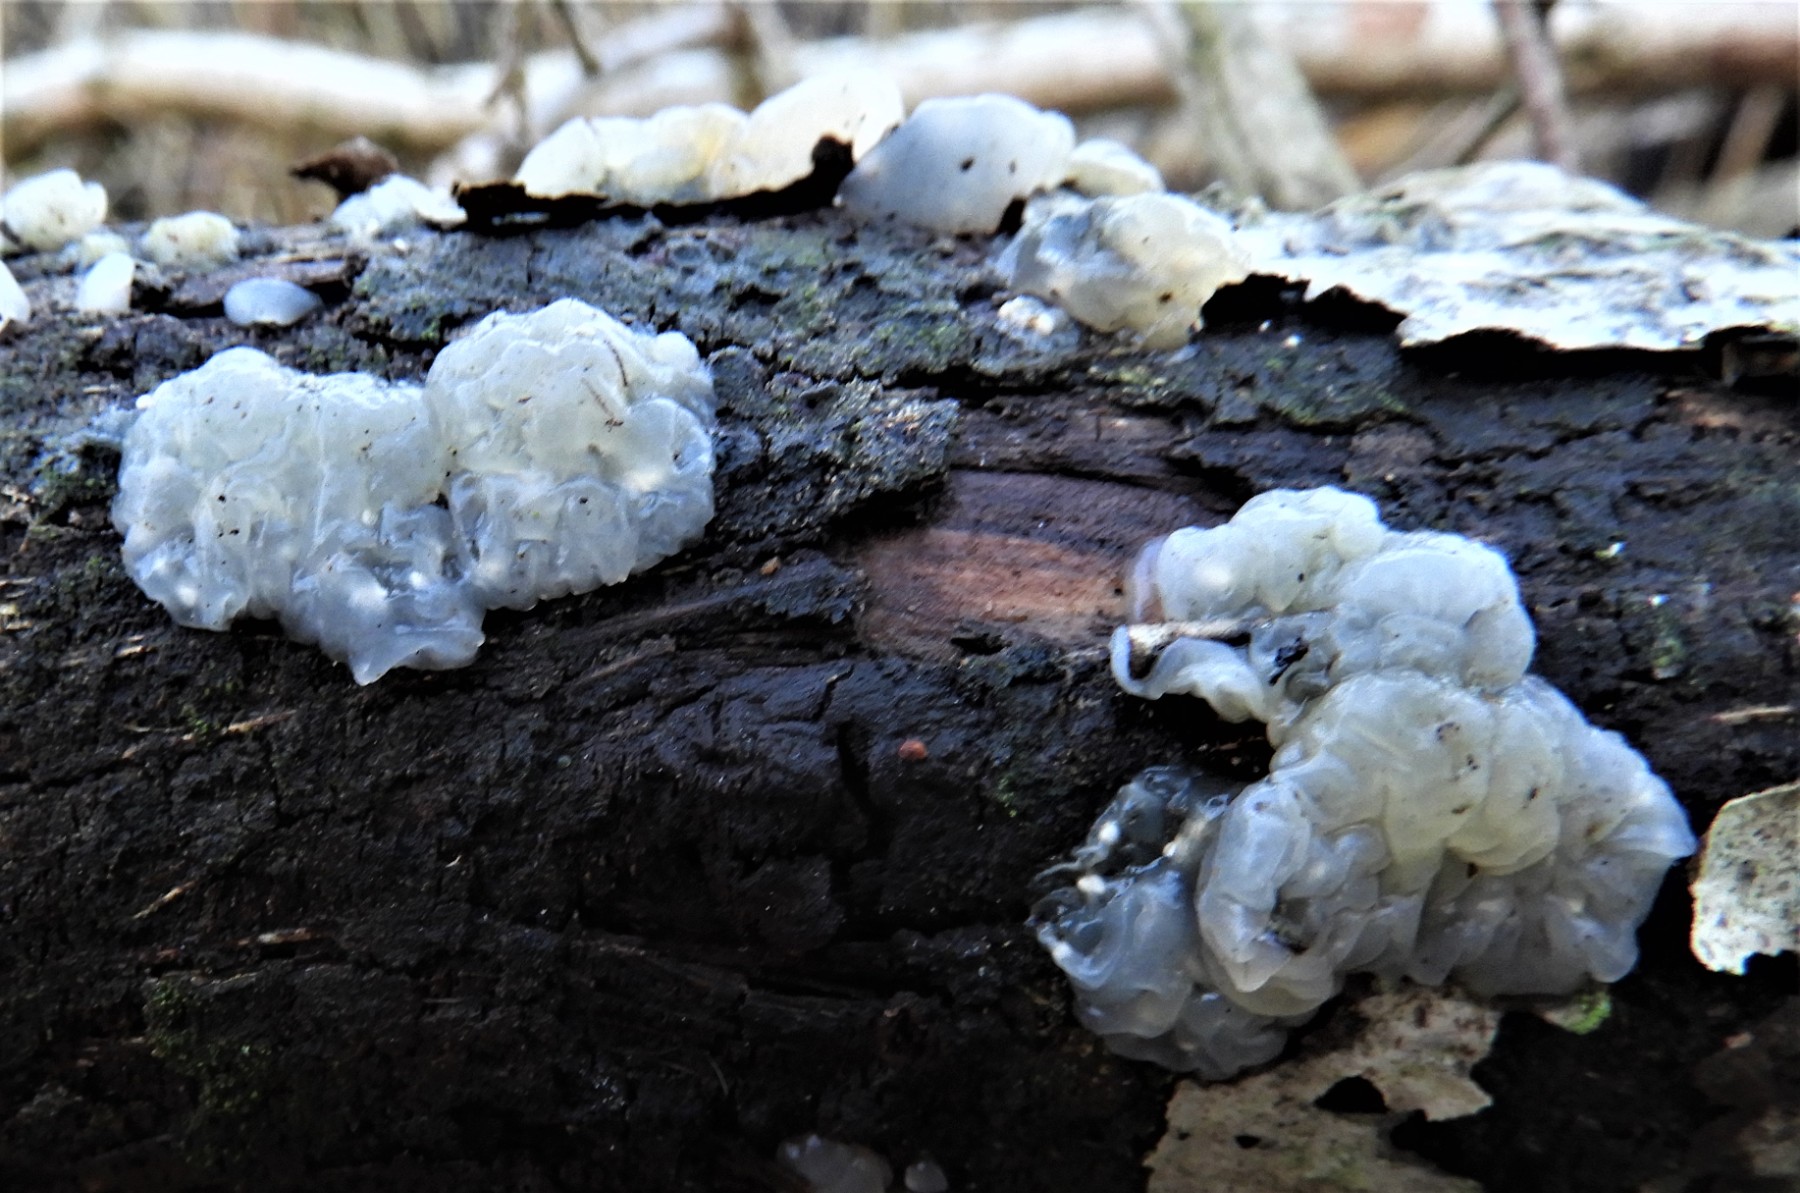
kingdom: Fungi
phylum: Basidiomycota
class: Agaricomycetes
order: Auriculariales
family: Hyaloriaceae
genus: Myxarium
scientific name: Myxarium nucleatum
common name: klar bævretop
